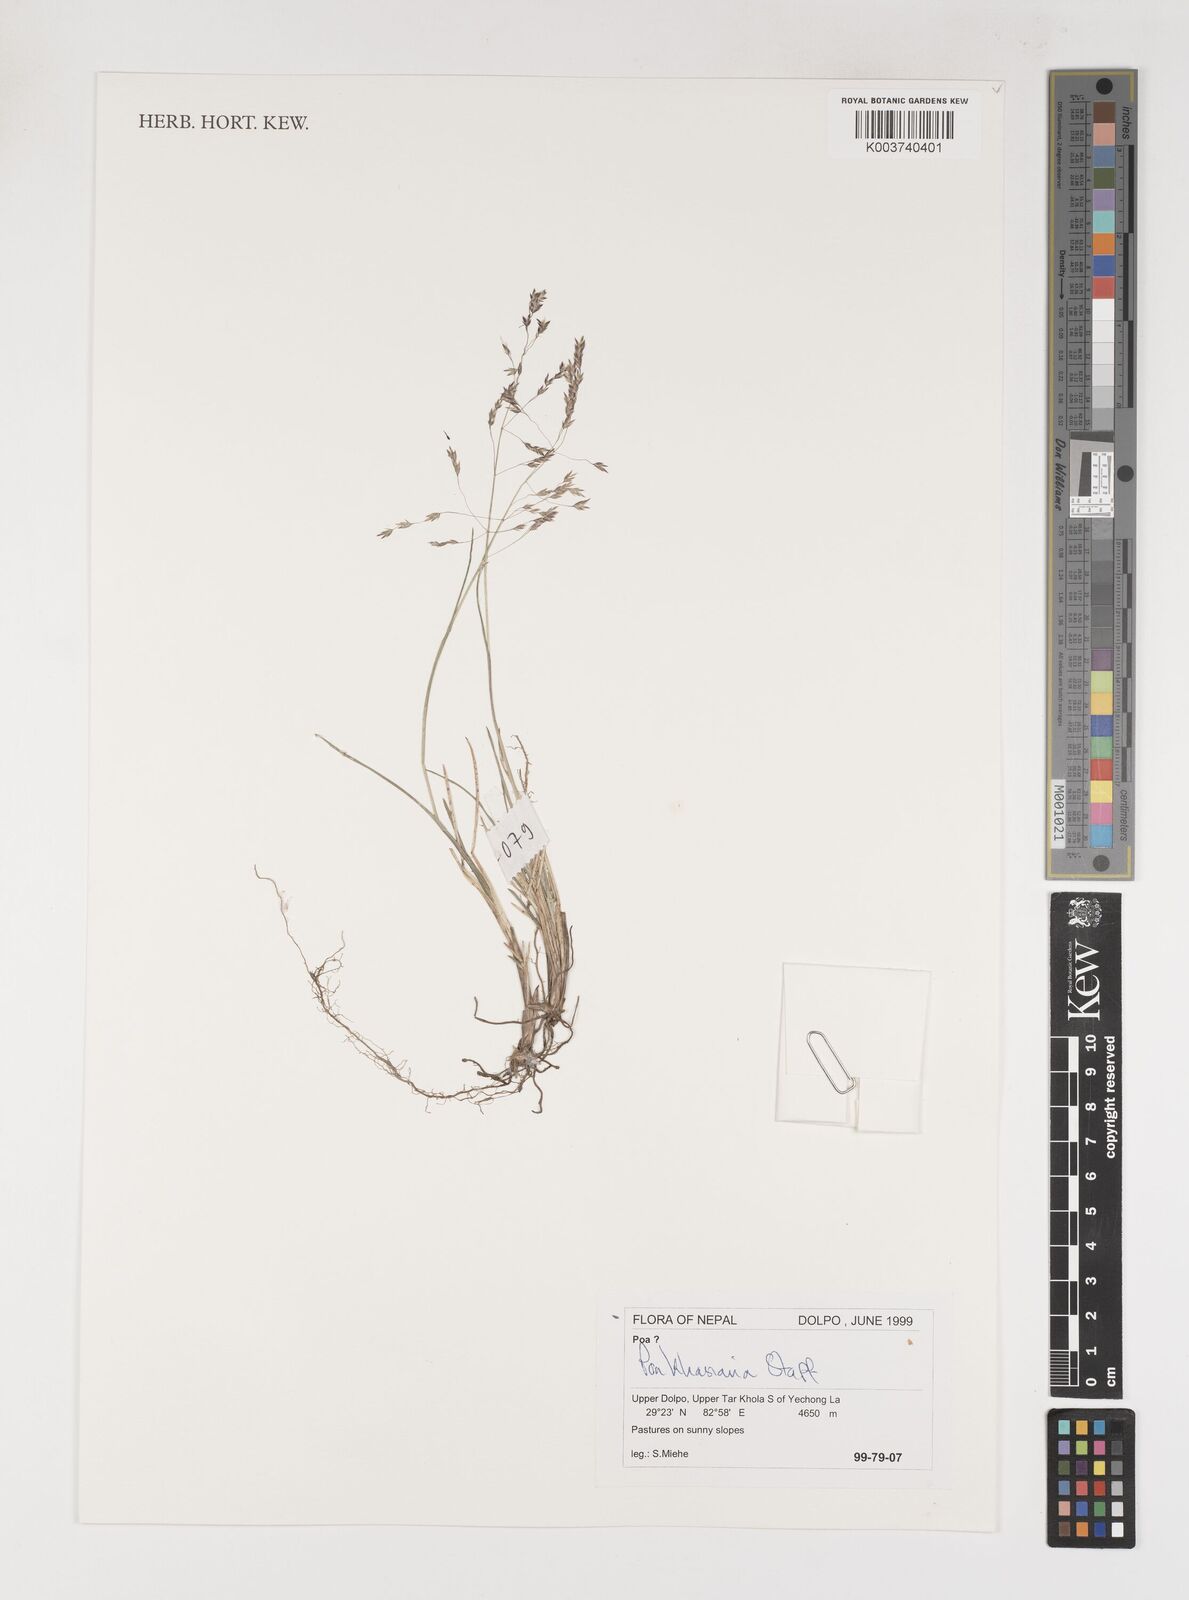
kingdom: Plantae
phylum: Tracheophyta
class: Liliopsida
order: Poales
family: Poaceae
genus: Poa
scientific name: Poa khasiana
